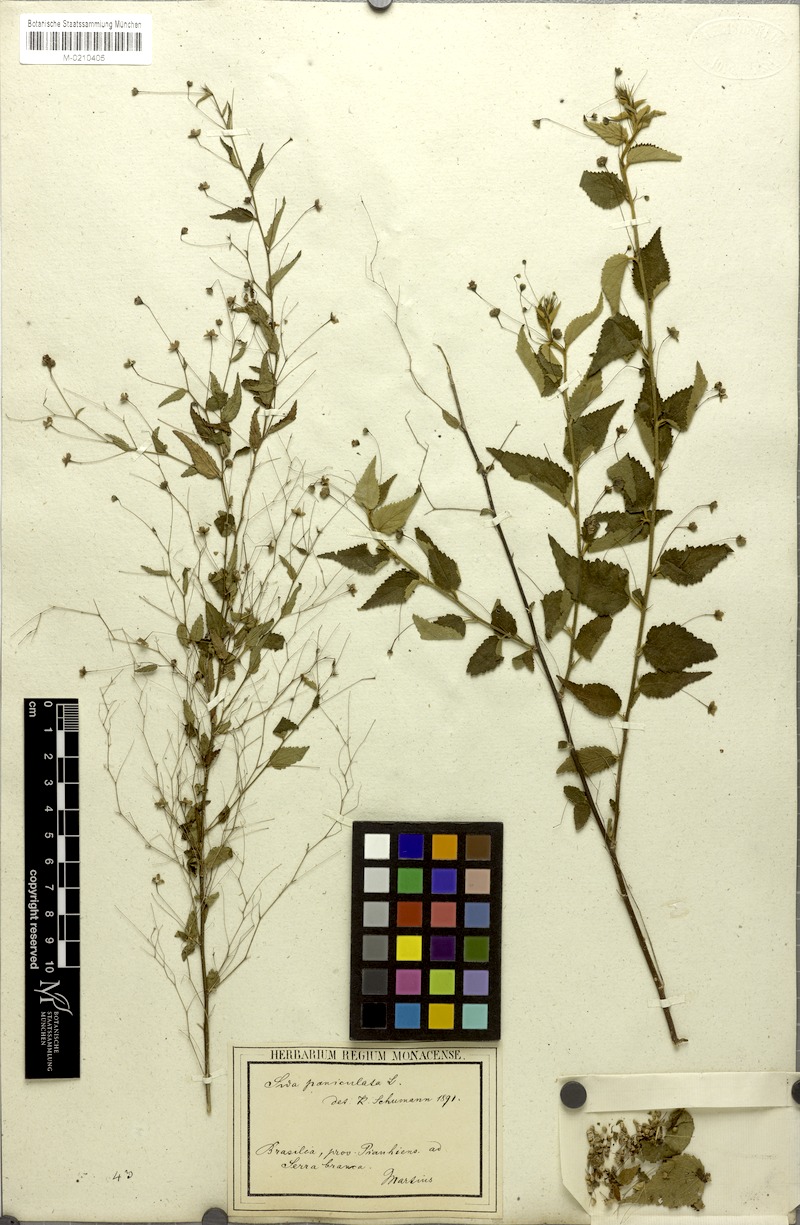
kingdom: Plantae
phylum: Tracheophyta
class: Magnoliopsida
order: Malvales
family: Malvaceae
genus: Sidastrum
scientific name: Sidastrum paniculatum
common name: Panicled sandmallow
